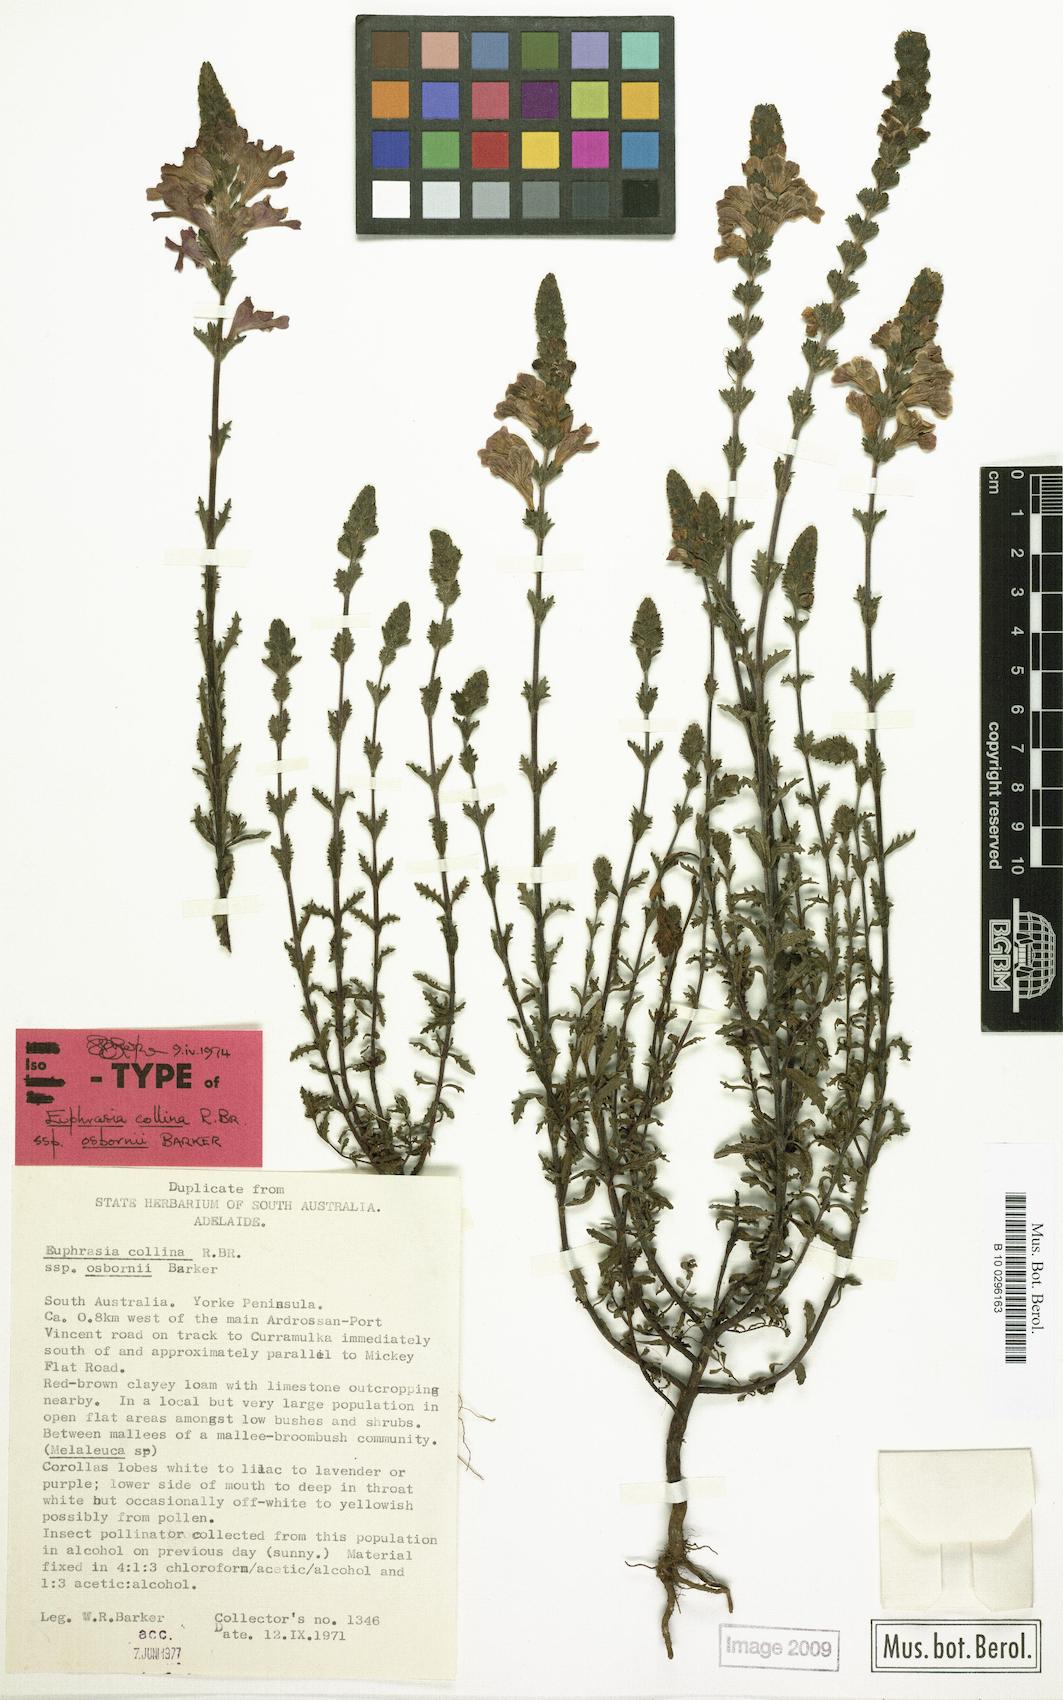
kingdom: Plantae
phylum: Tracheophyta
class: Magnoliopsida
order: Lamiales
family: Orobanchaceae
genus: Euphrasia
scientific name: Euphrasia collina
